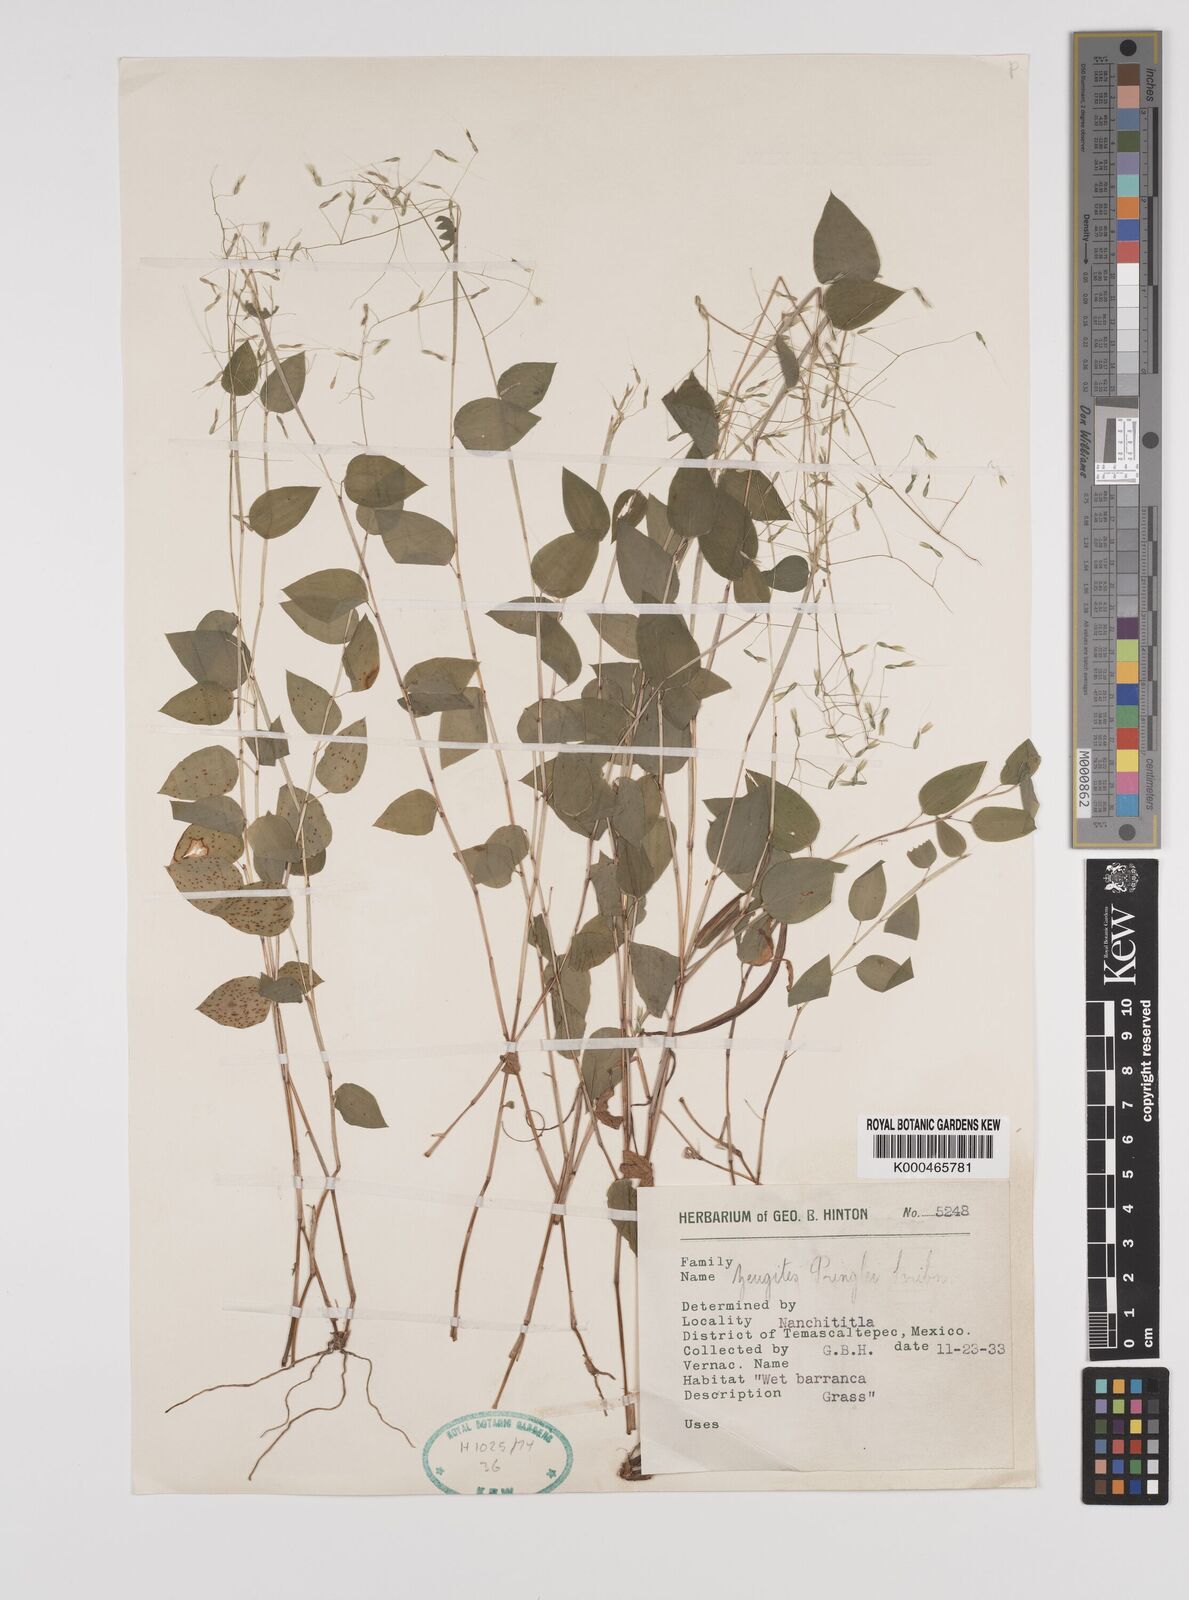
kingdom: Plantae
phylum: Tracheophyta
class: Liliopsida
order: Poales
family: Poaceae
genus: Zeugites
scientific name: Zeugites americanus
